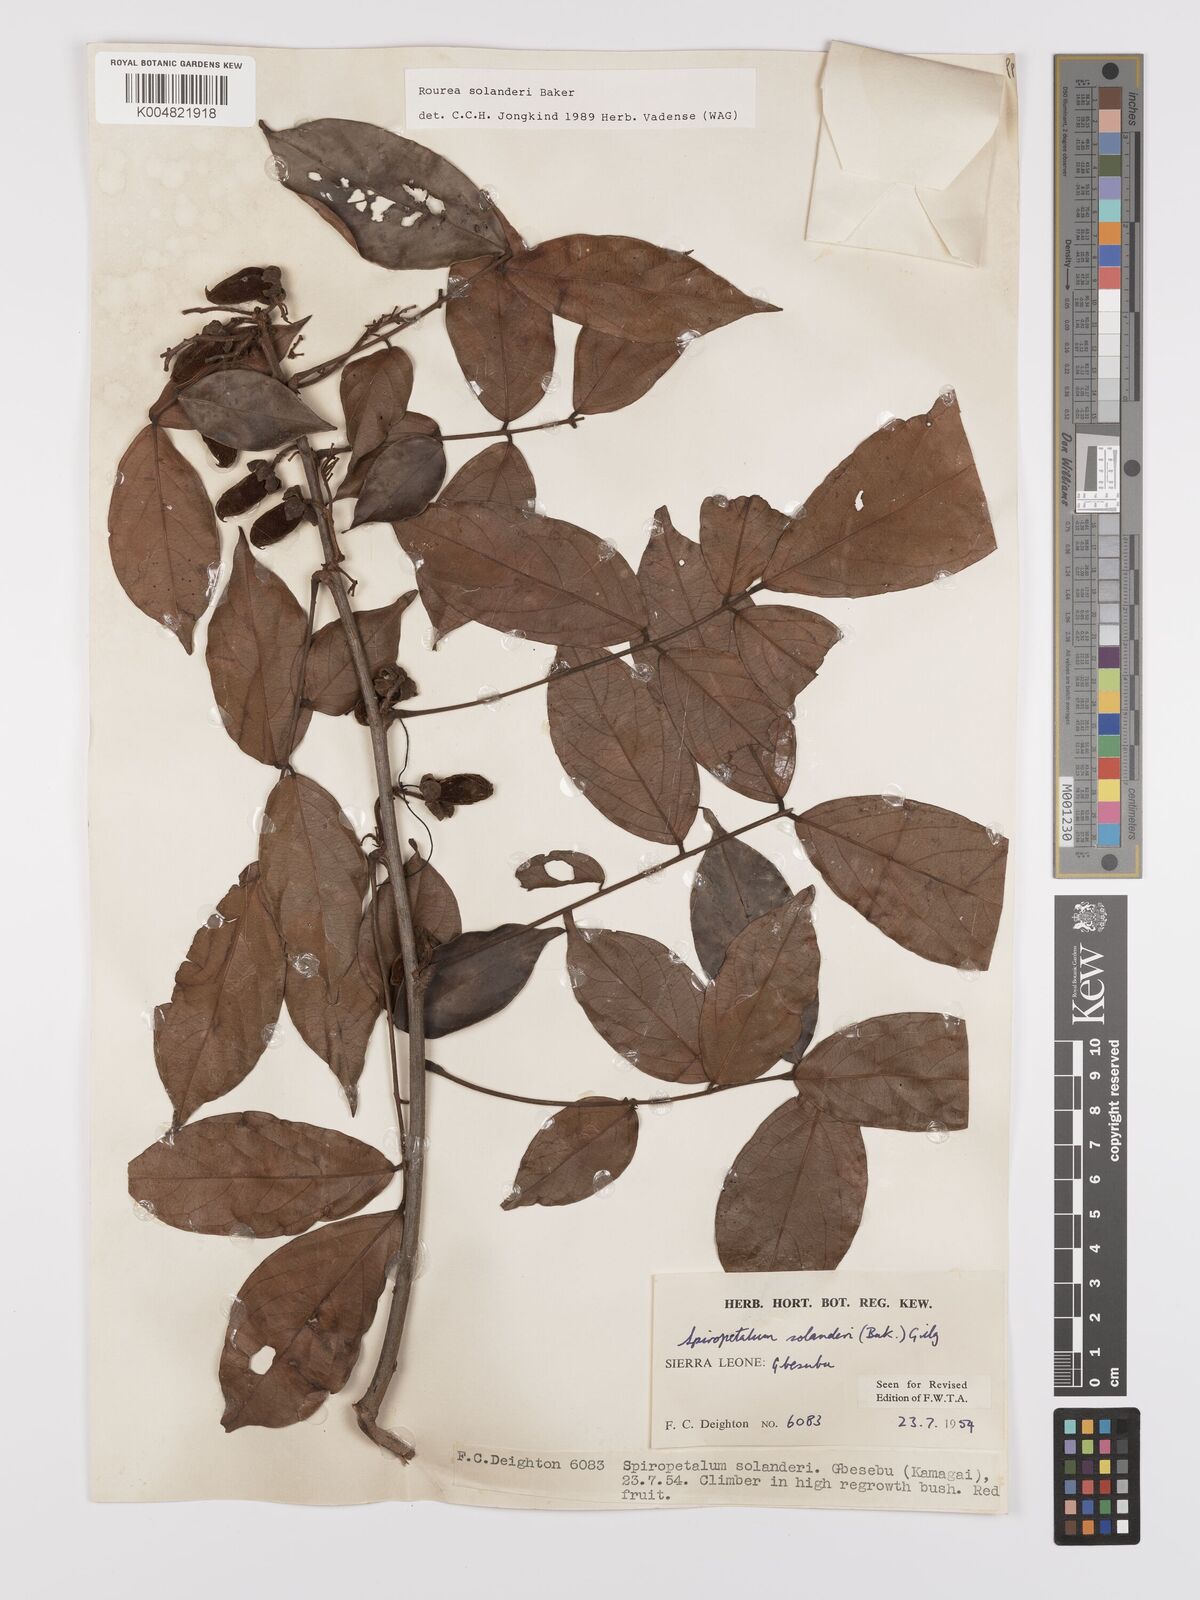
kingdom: Plantae
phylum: Tracheophyta
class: Magnoliopsida
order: Oxalidales
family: Connaraceae
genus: Rourea
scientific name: Rourea solanderi
